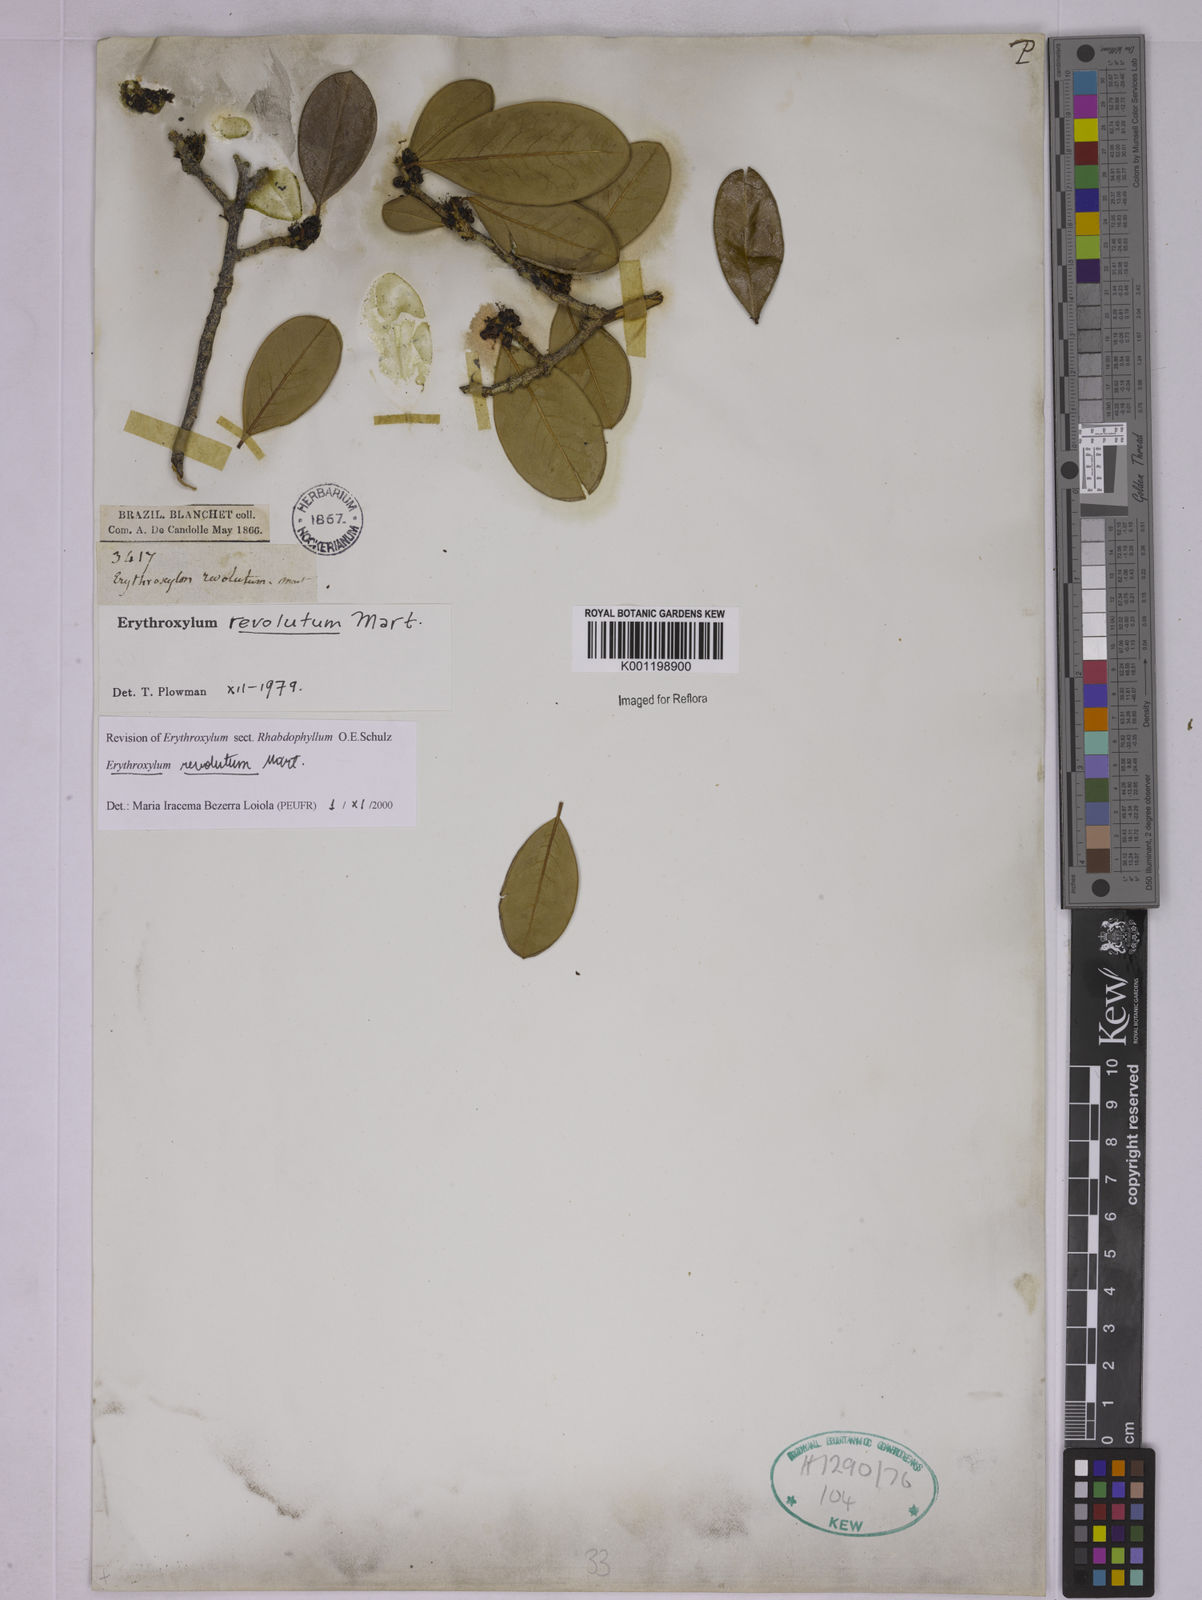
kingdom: Plantae
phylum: Tracheophyta
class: Magnoliopsida
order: Malpighiales
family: Erythroxylaceae
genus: Erythroxylum
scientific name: Erythroxylum revolutum
